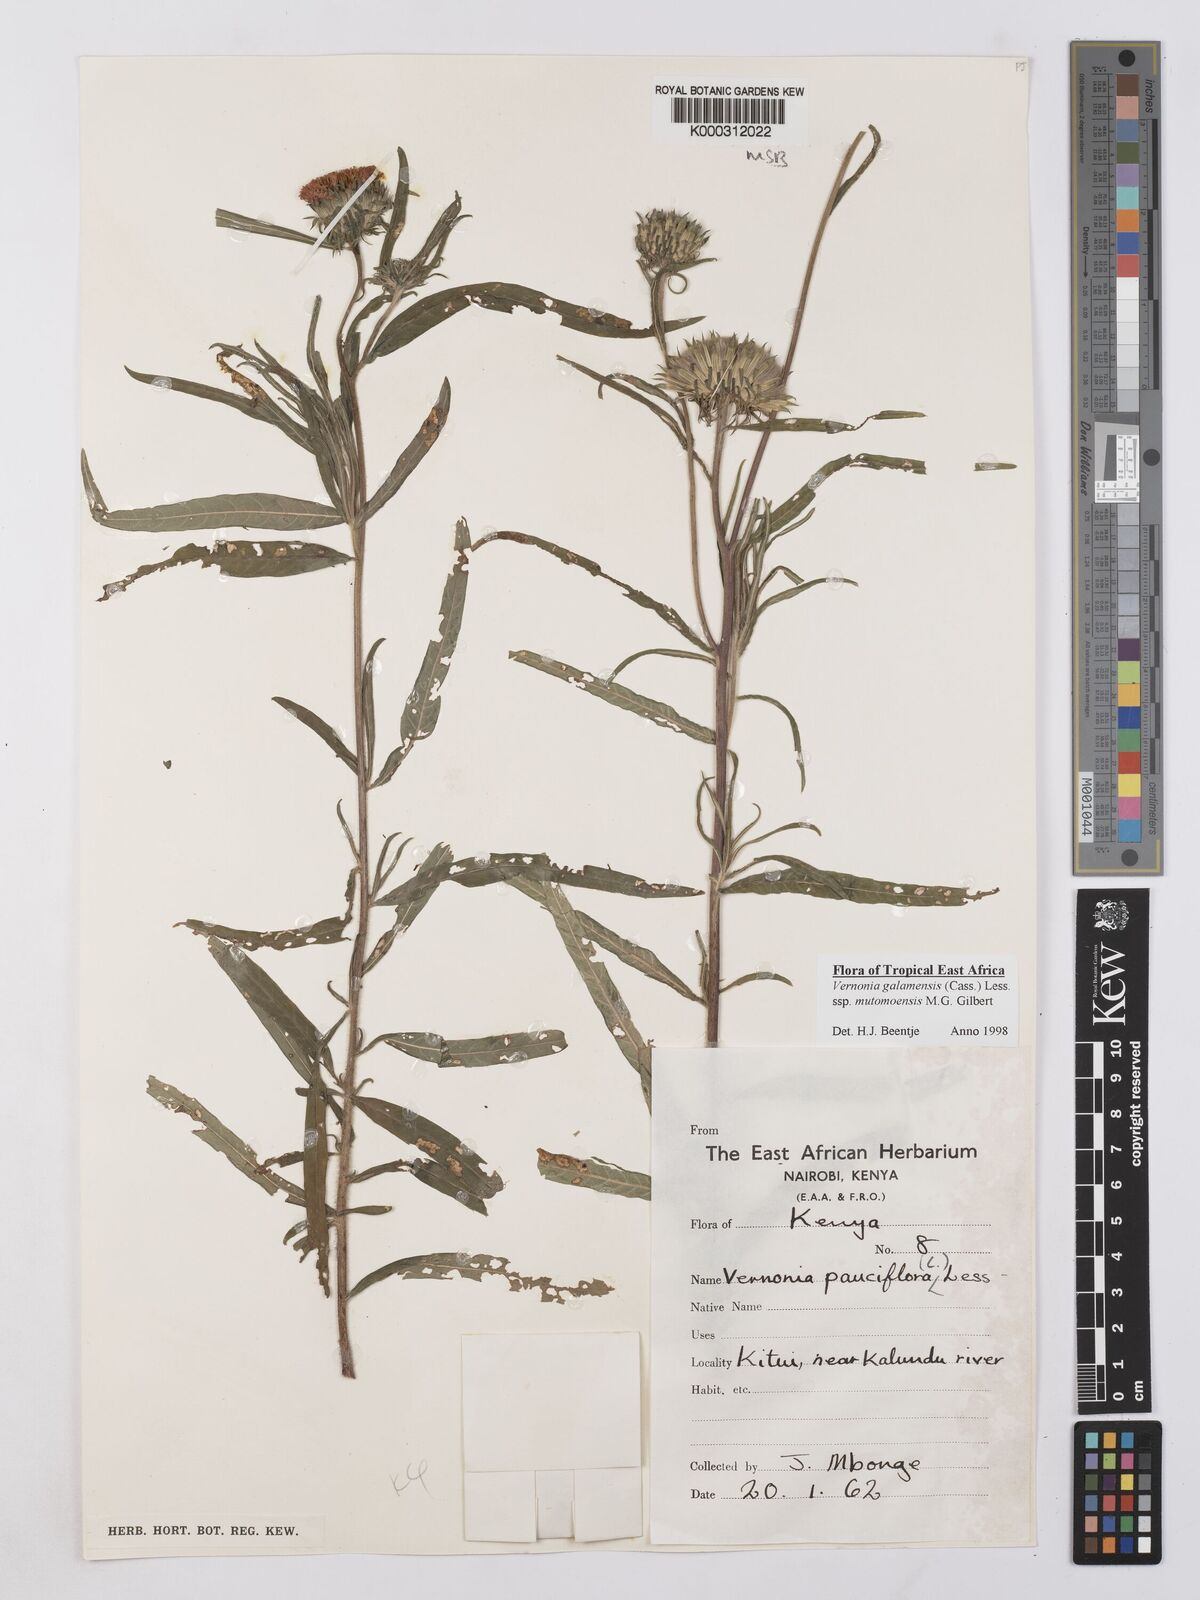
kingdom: Plantae
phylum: Tracheophyta
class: Magnoliopsida
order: Asterales
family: Asteraceae
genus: Vernonia
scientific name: Vernonia galamensis
